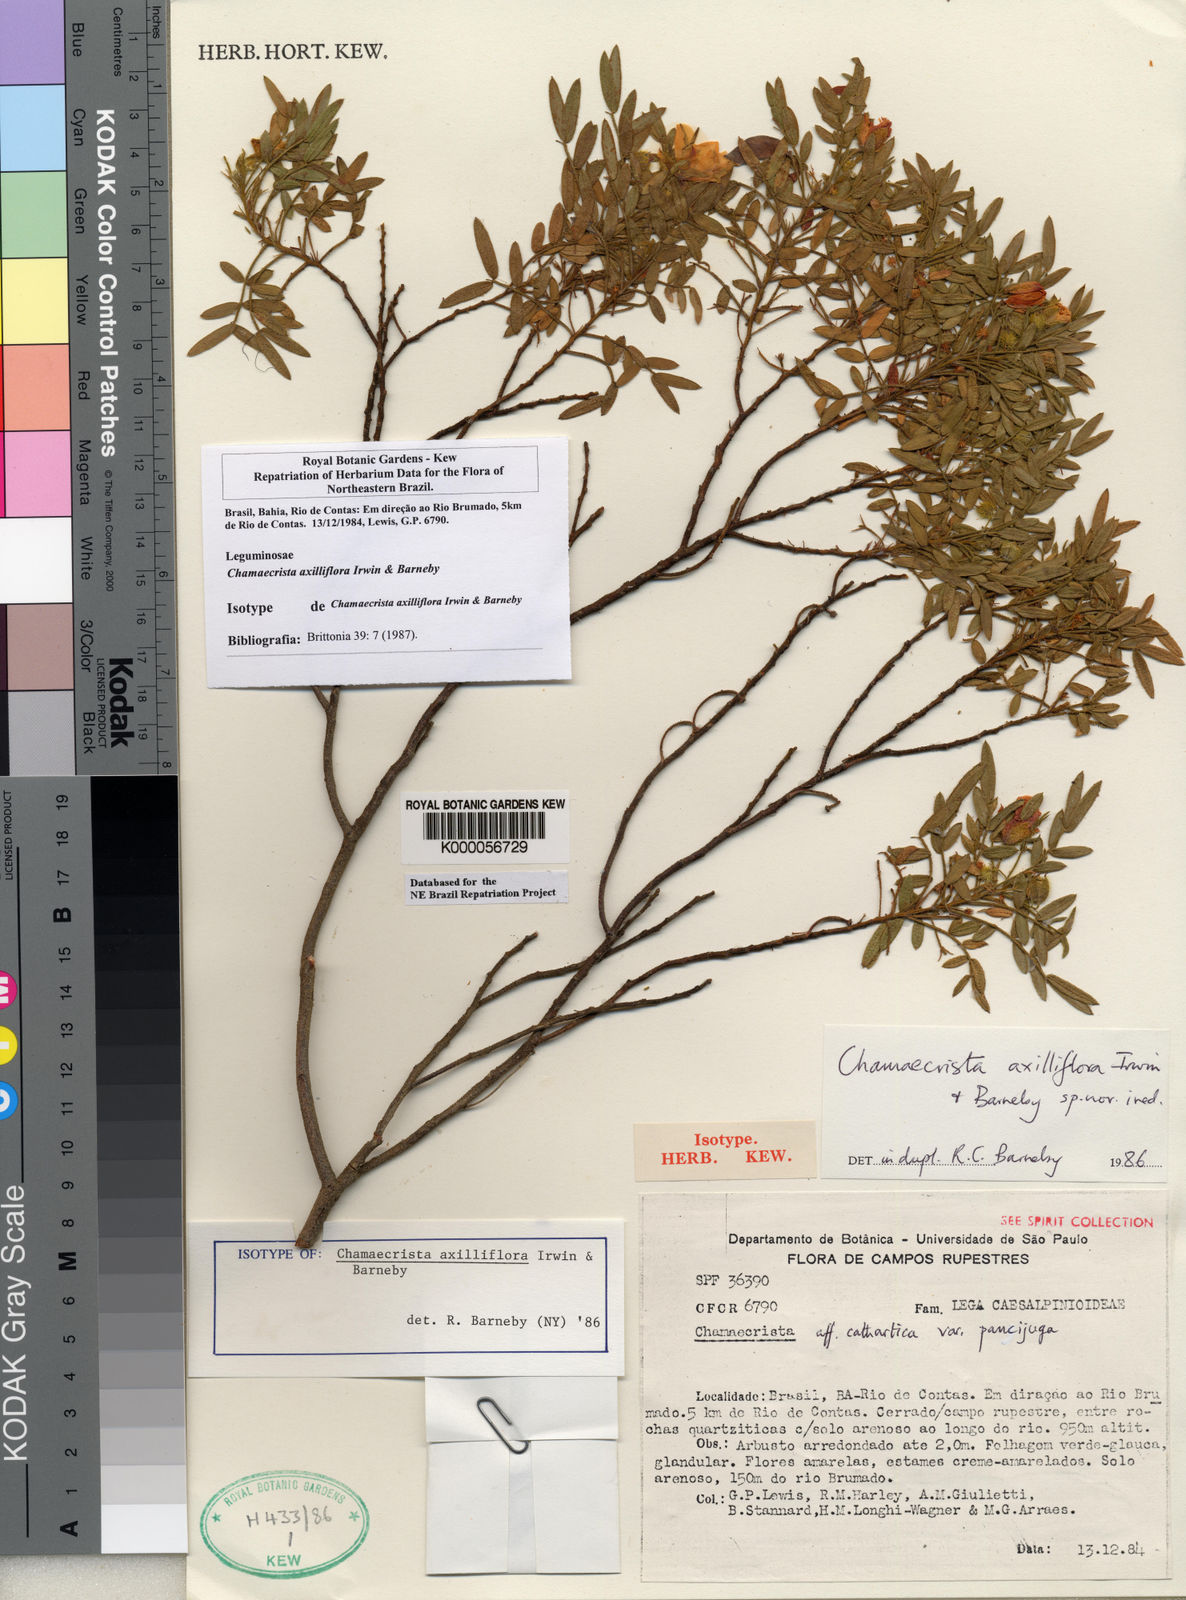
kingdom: Plantae
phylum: Tracheophyta
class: Magnoliopsida
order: Fabales
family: Fabaceae
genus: Chamaecrista
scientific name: Chamaecrista axilliflora
